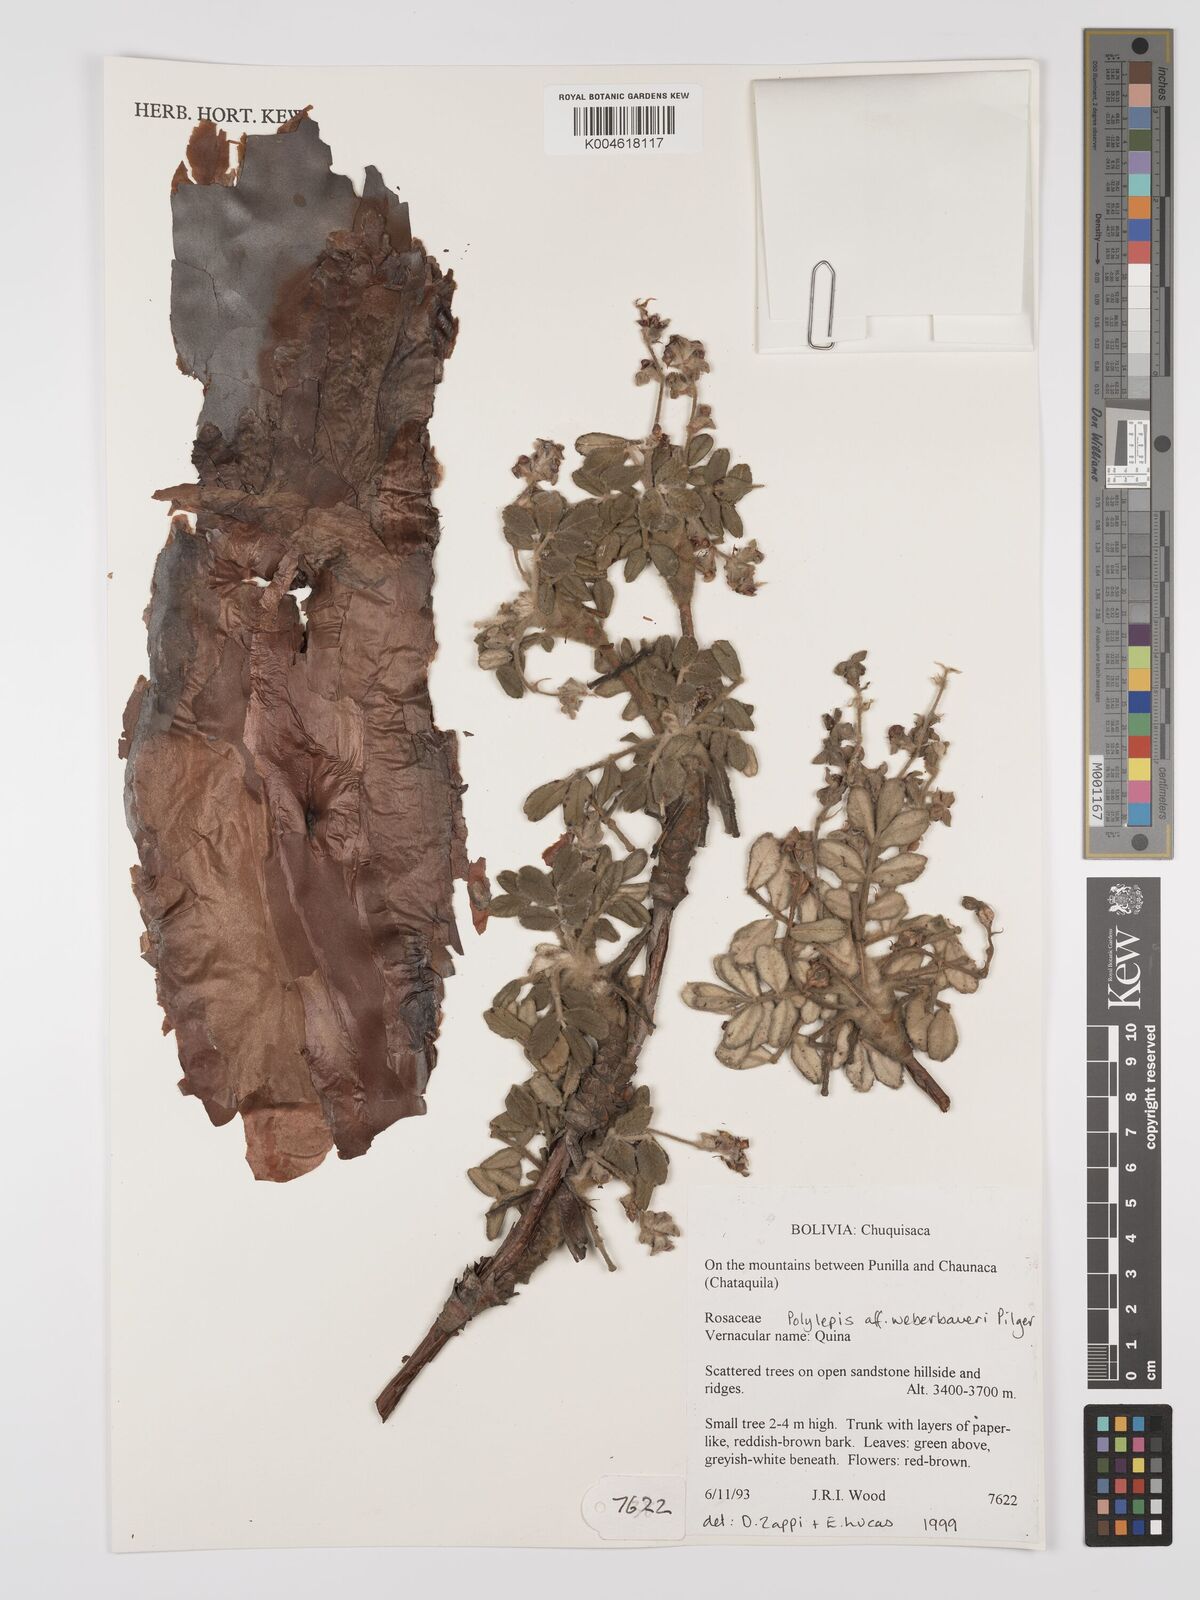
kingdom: Plantae
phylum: Tracheophyta
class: Magnoliopsida
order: Rosales
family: Rosaceae
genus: Polylepis
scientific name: Polylepis weberbaueri
